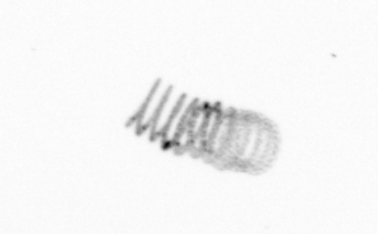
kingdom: Chromista
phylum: Ochrophyta
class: Bacillariophyceae
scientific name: Bacillariophyceae
